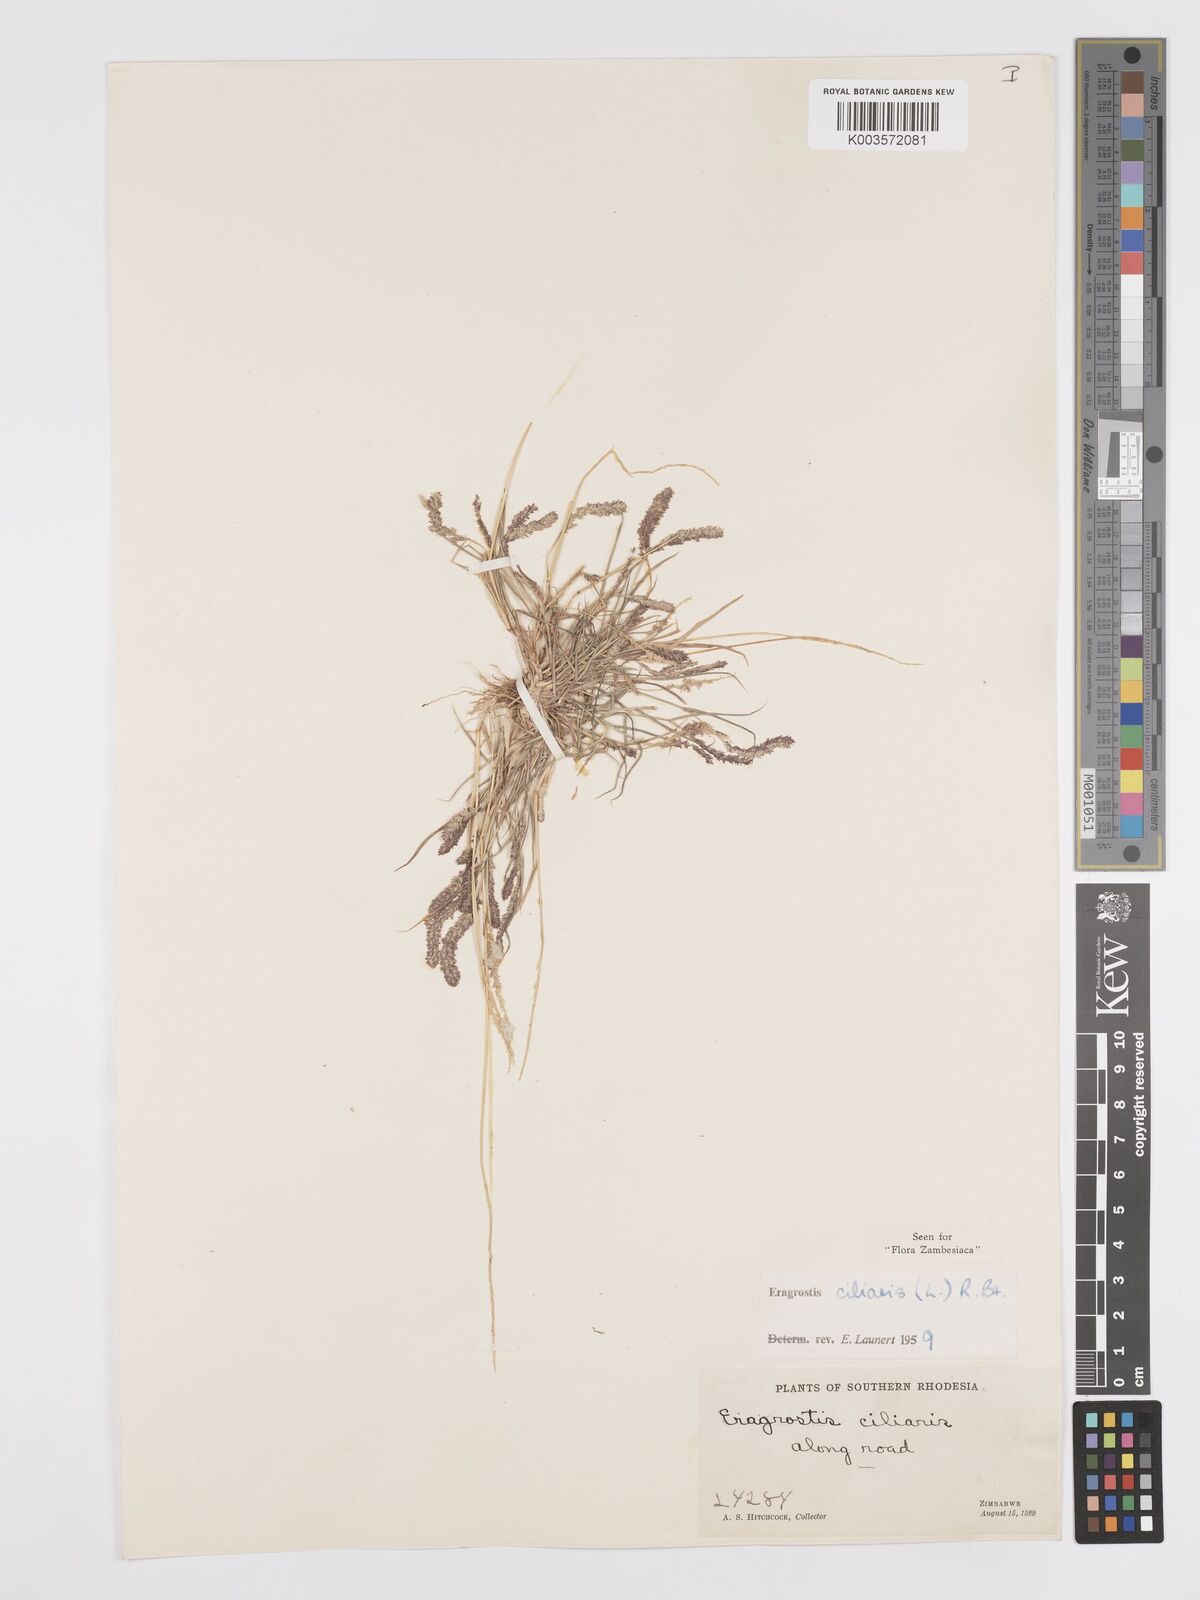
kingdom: Plantae
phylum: Tracheophyta
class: Liliopsida
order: Poales
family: Poaceae
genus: Eragrostis
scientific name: Eragrostis ciliaris
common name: Gophertail lovegrass
